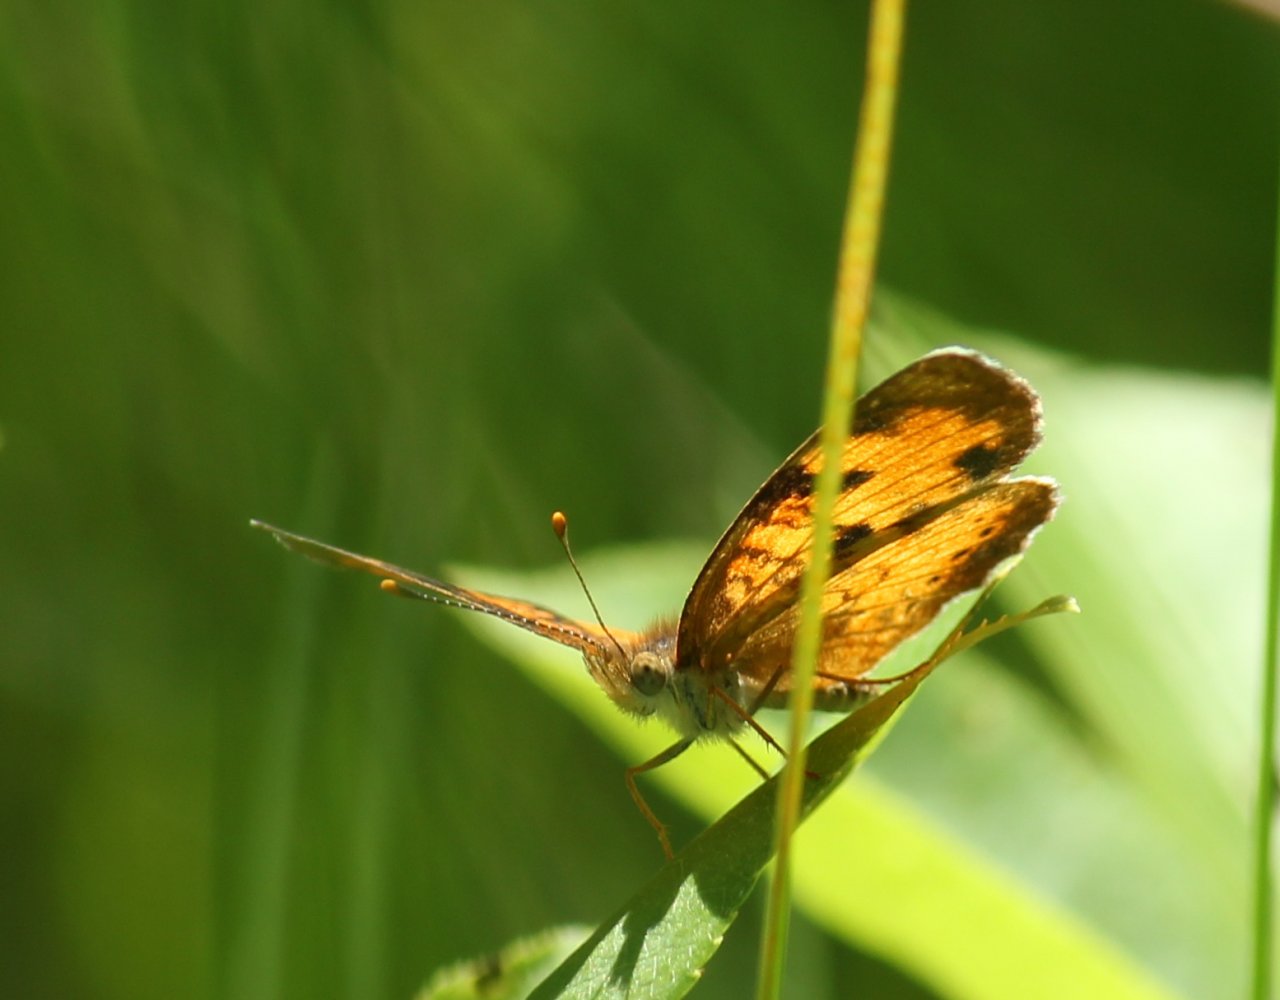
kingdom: Animalia
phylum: Arthropoda
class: Insecta
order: Lepidoptera
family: Nymphalidae
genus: Phyciodes
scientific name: Phyciodes tharos
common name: Northern Crescent
